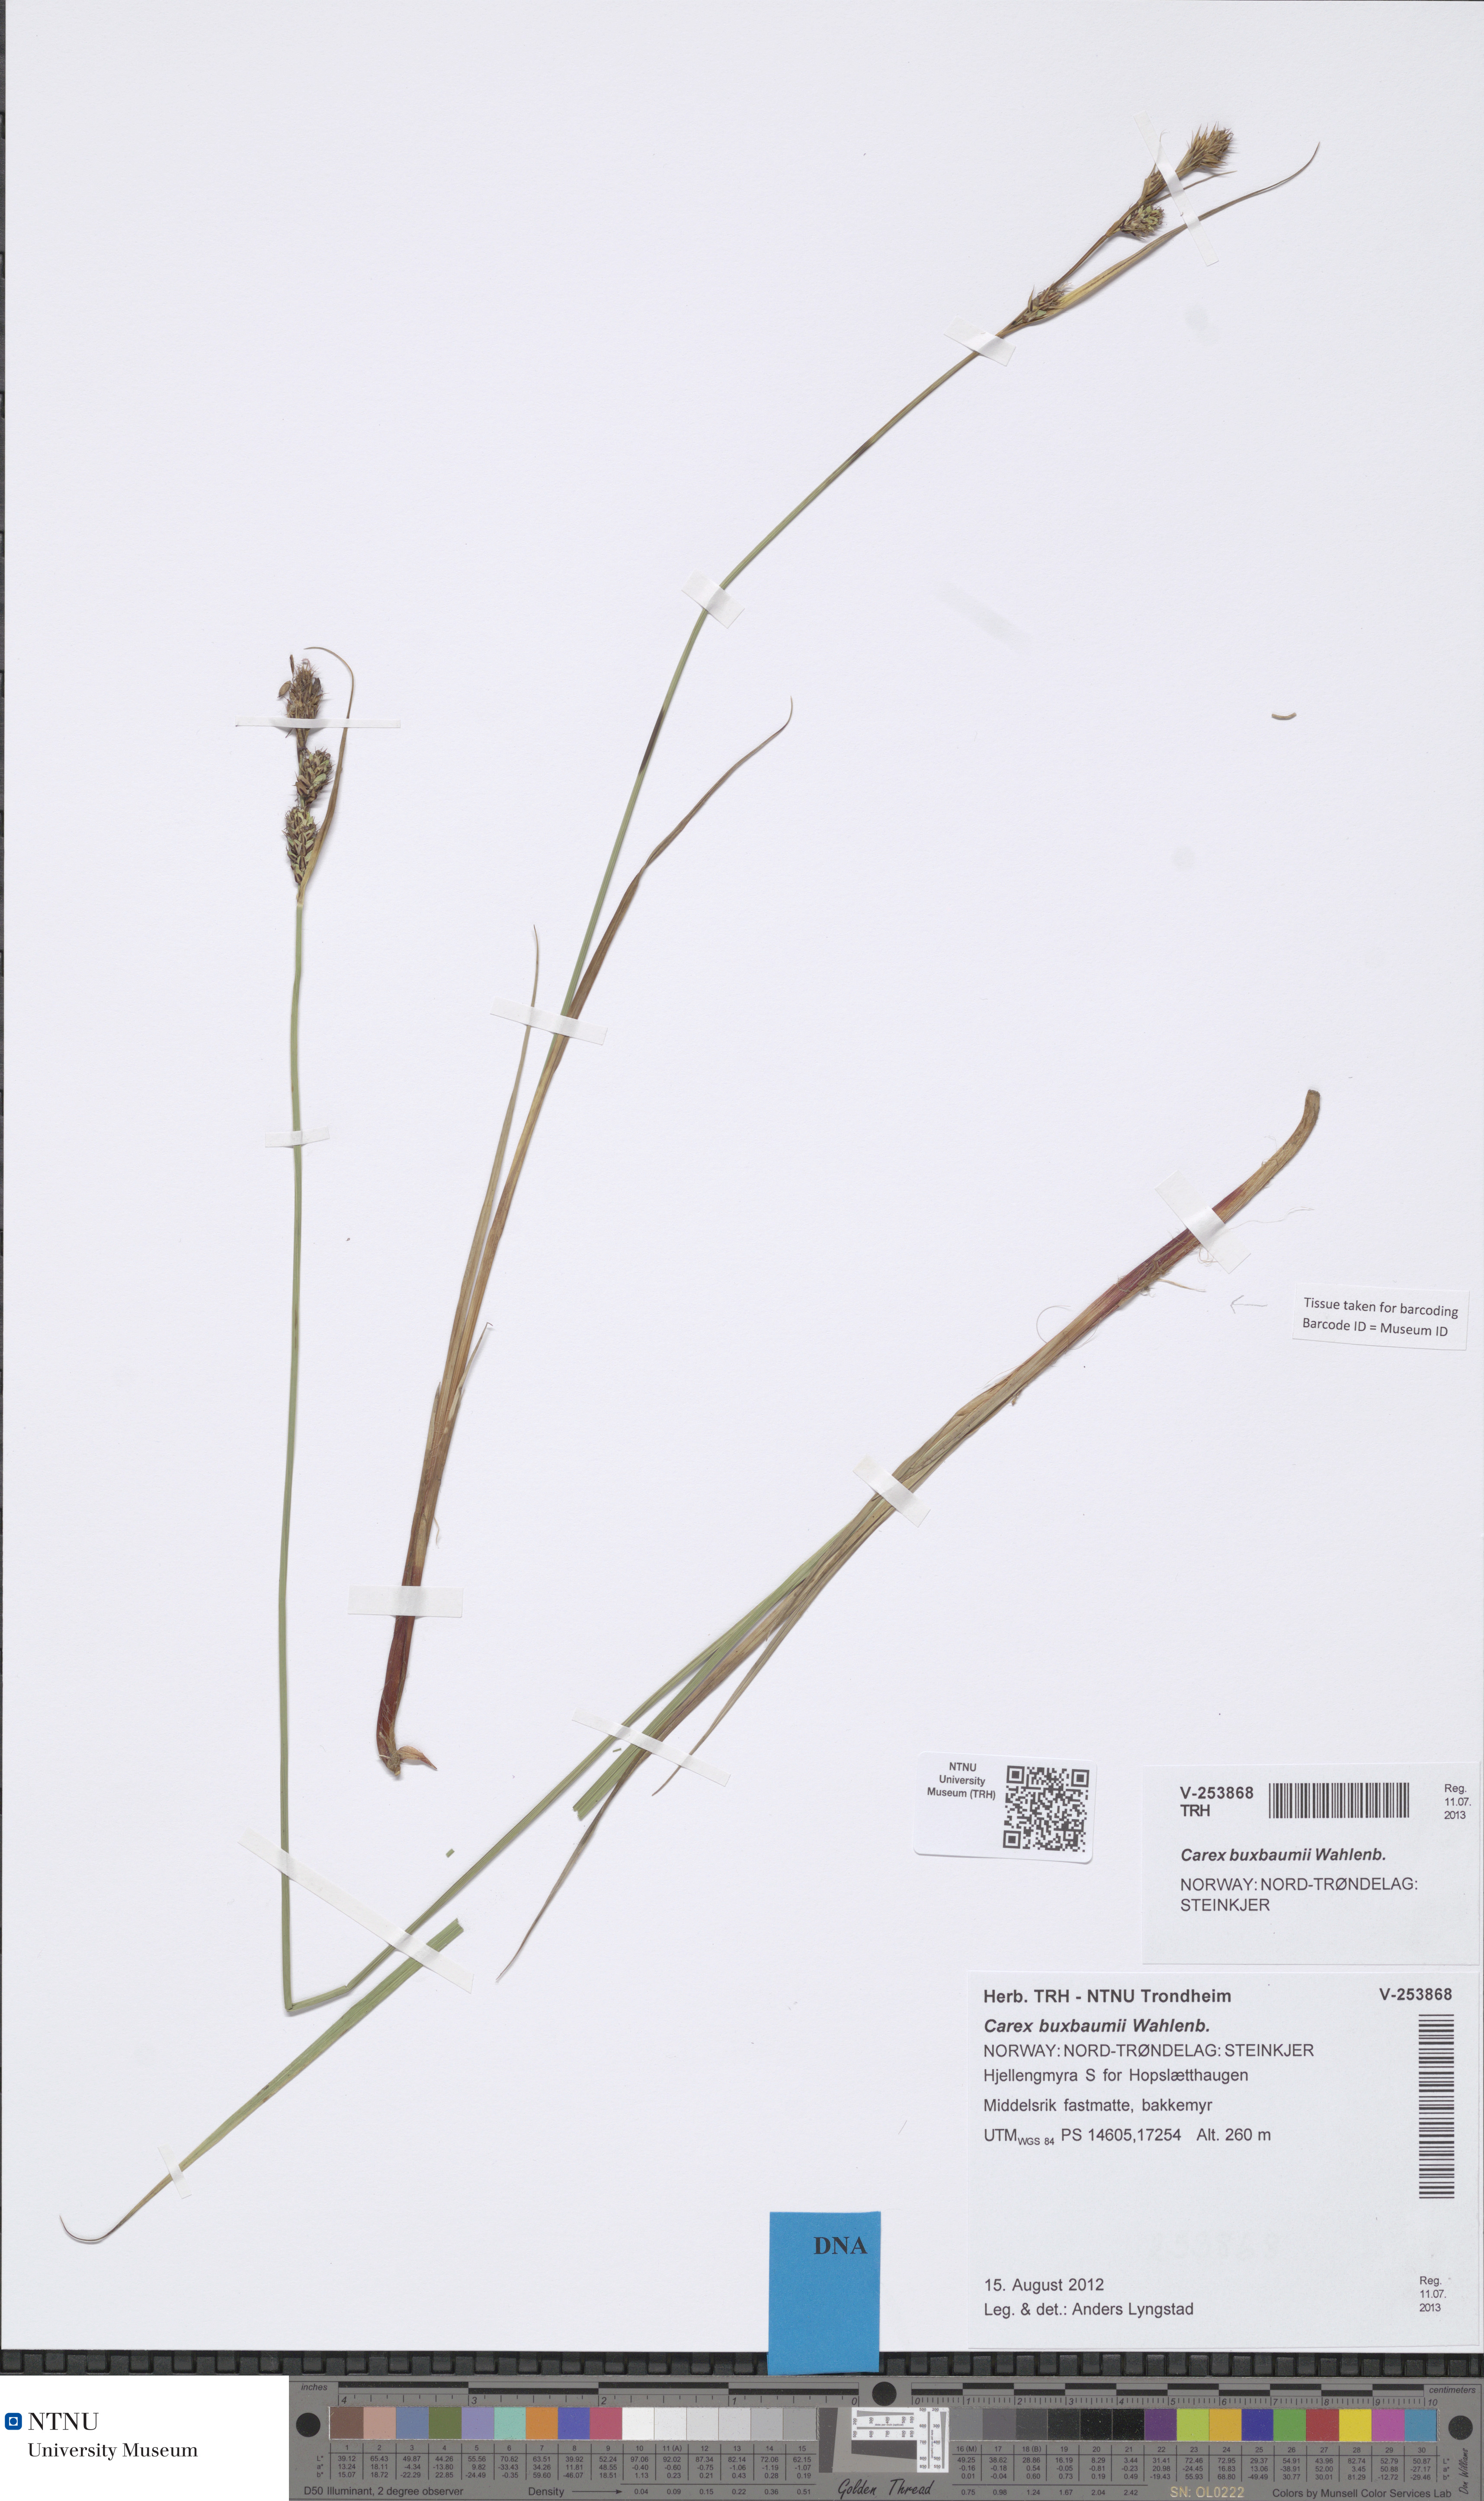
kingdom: Plantae
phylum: Tracheophyta
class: Liliopsida
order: Poales
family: Cyperaceae
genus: Carex
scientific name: Carex buxbaumii
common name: Club sedge
